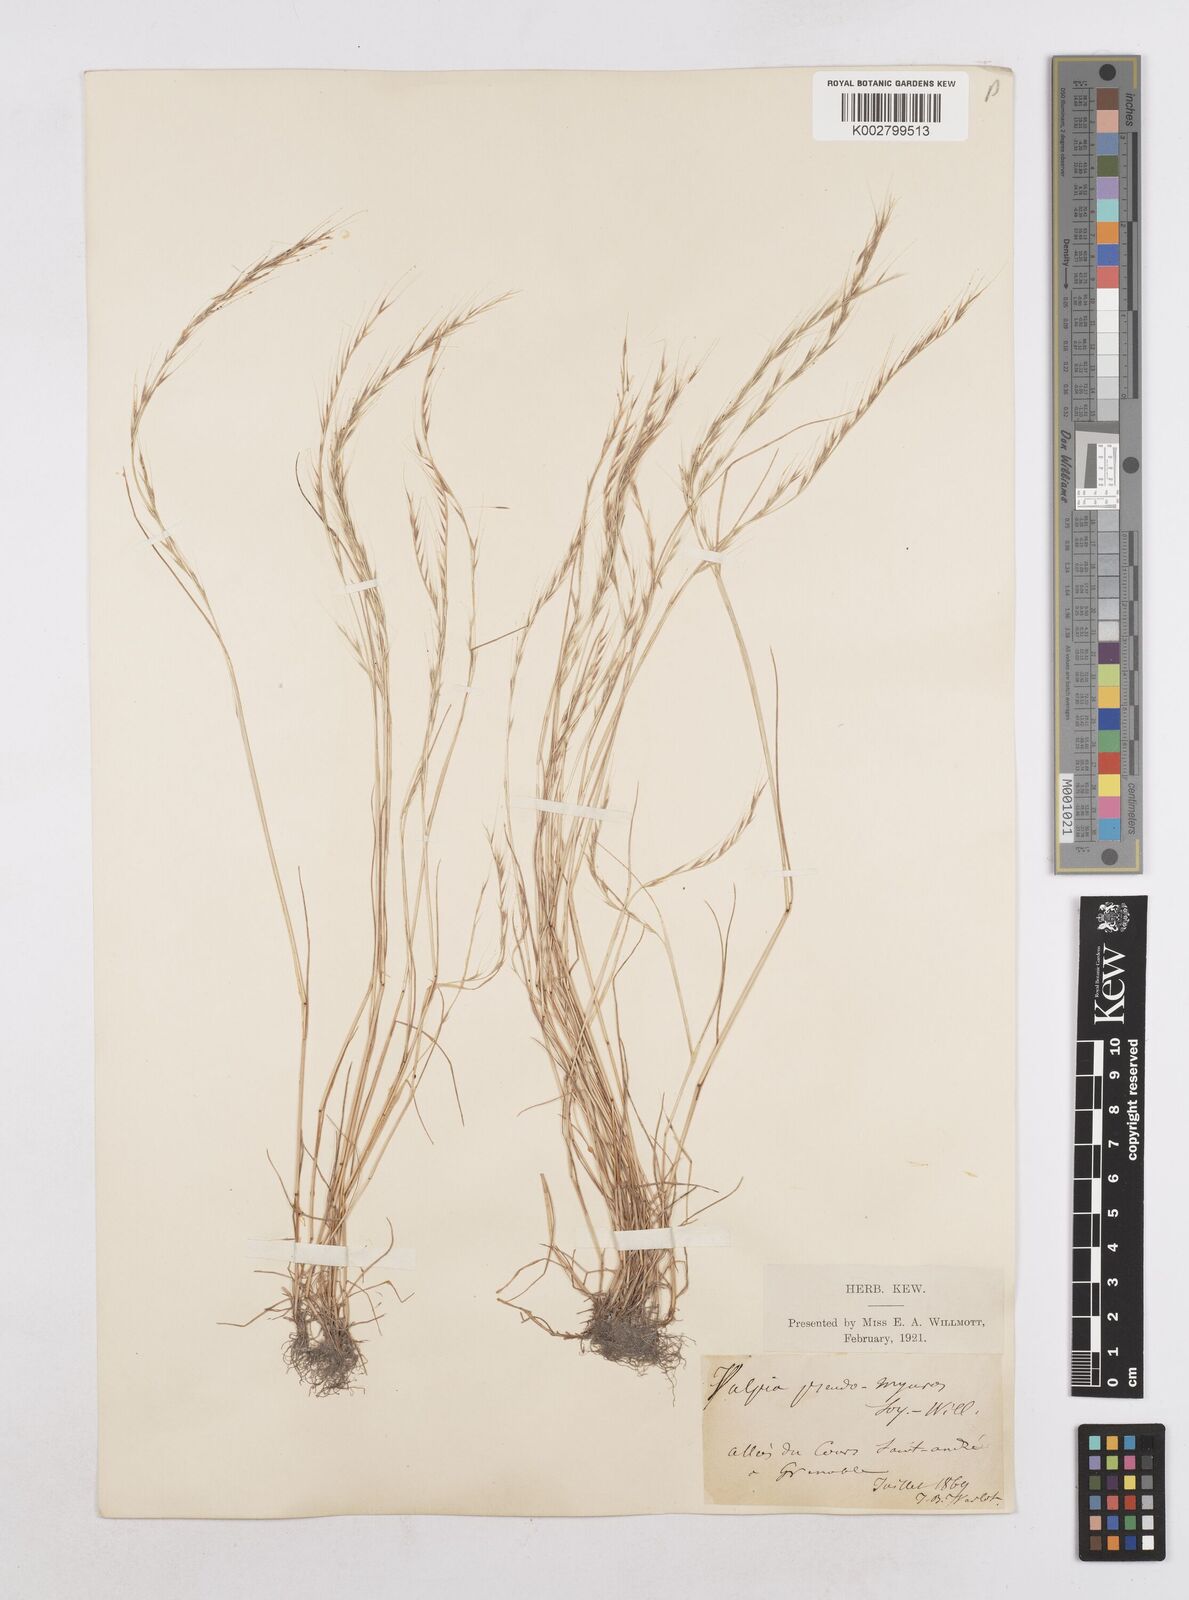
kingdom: Plantae
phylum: Tracheophyta
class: Liliopsida
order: Poales
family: Poaceae
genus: Festuca
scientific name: Festuca myuros
